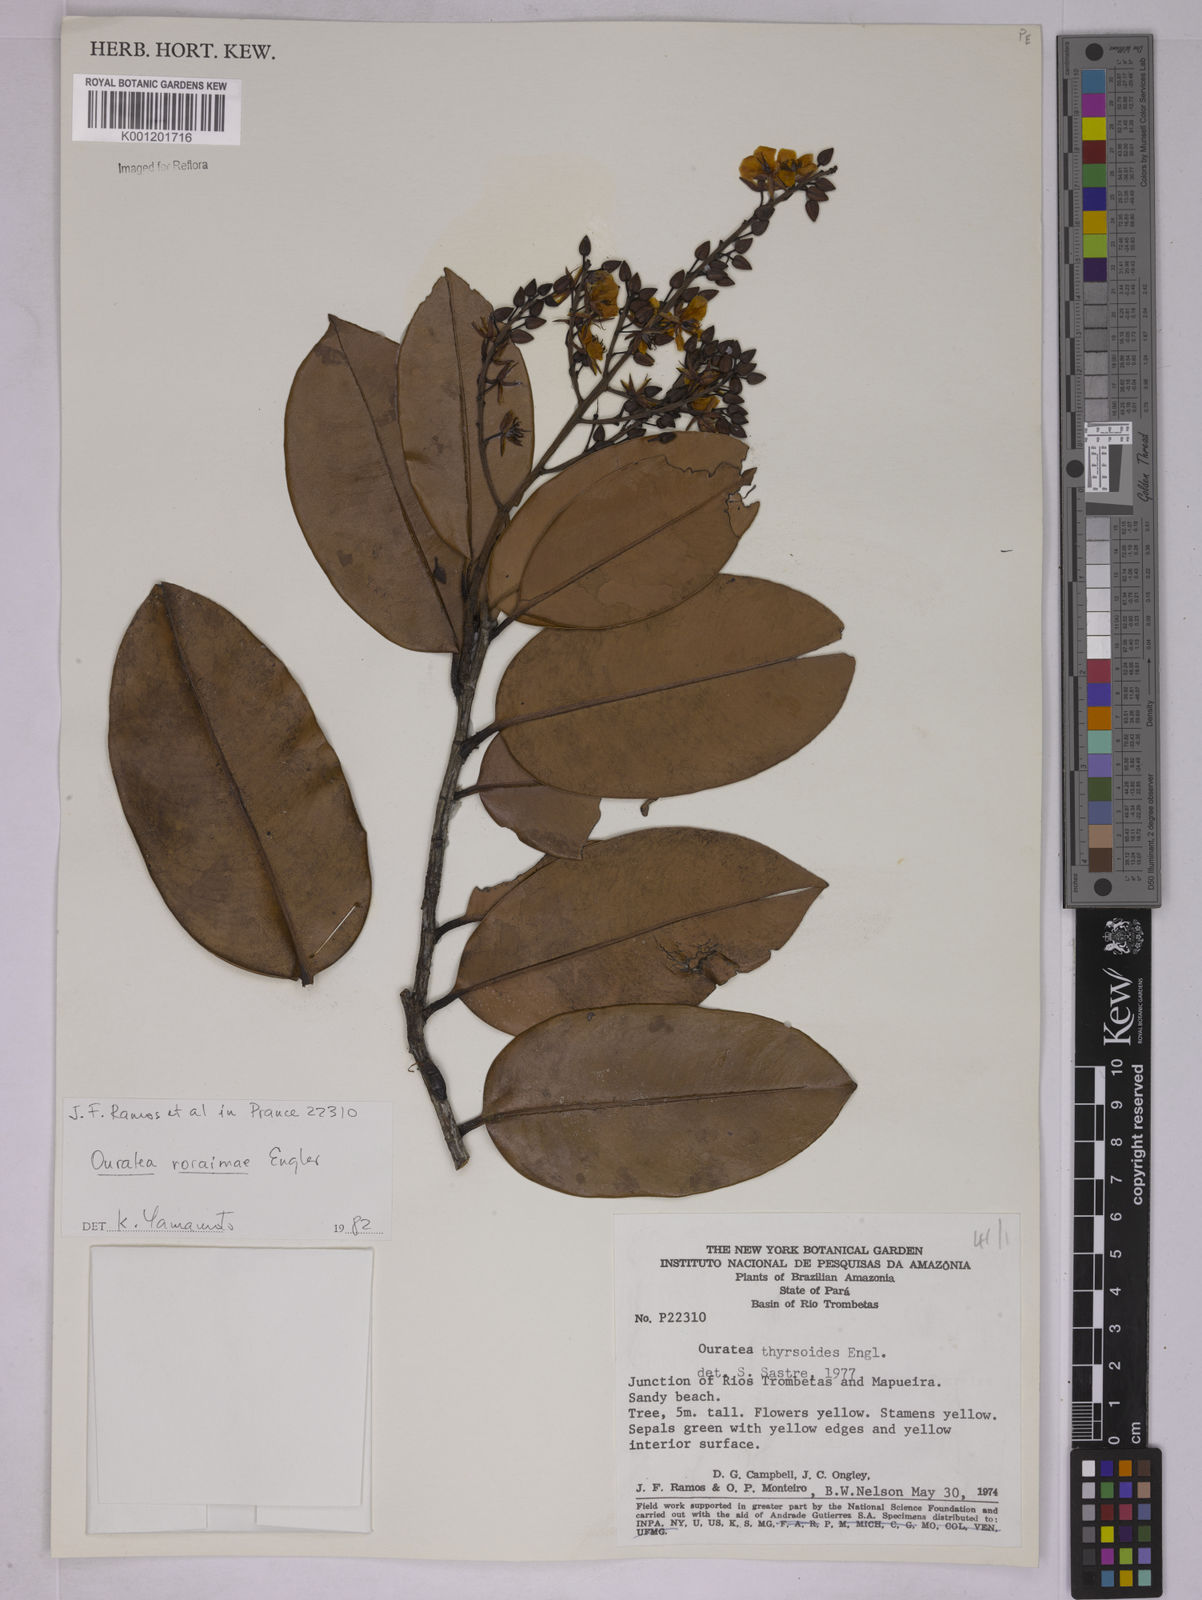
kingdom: Plantae
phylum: Tracheophyta
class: Magnoliopsida
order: Malpighiales
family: Ochnaceae
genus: Ouratea
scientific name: Ouratea roraimae
